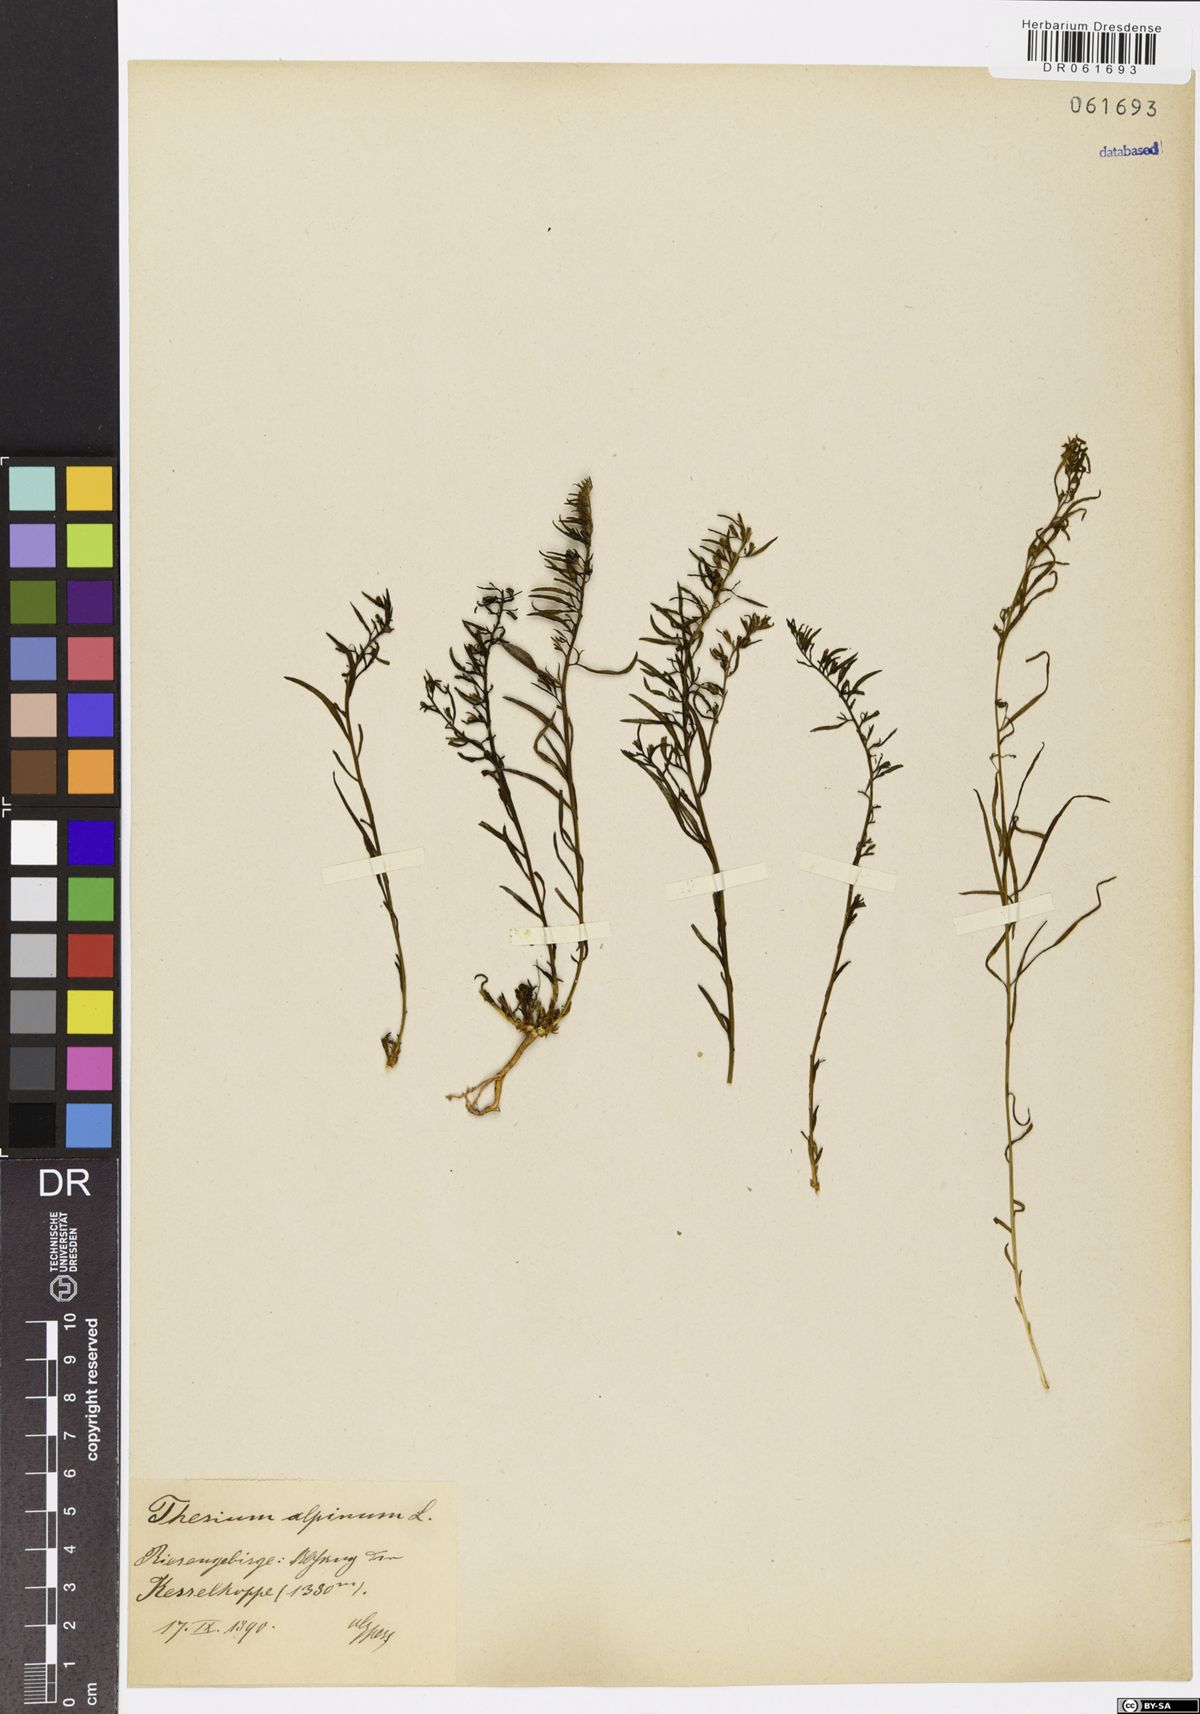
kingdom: Plantae
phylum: Tracheophyta
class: Magnoliopsida
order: Santalales
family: Thesiaceae
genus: Thesium
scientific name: Thesium alpinum
